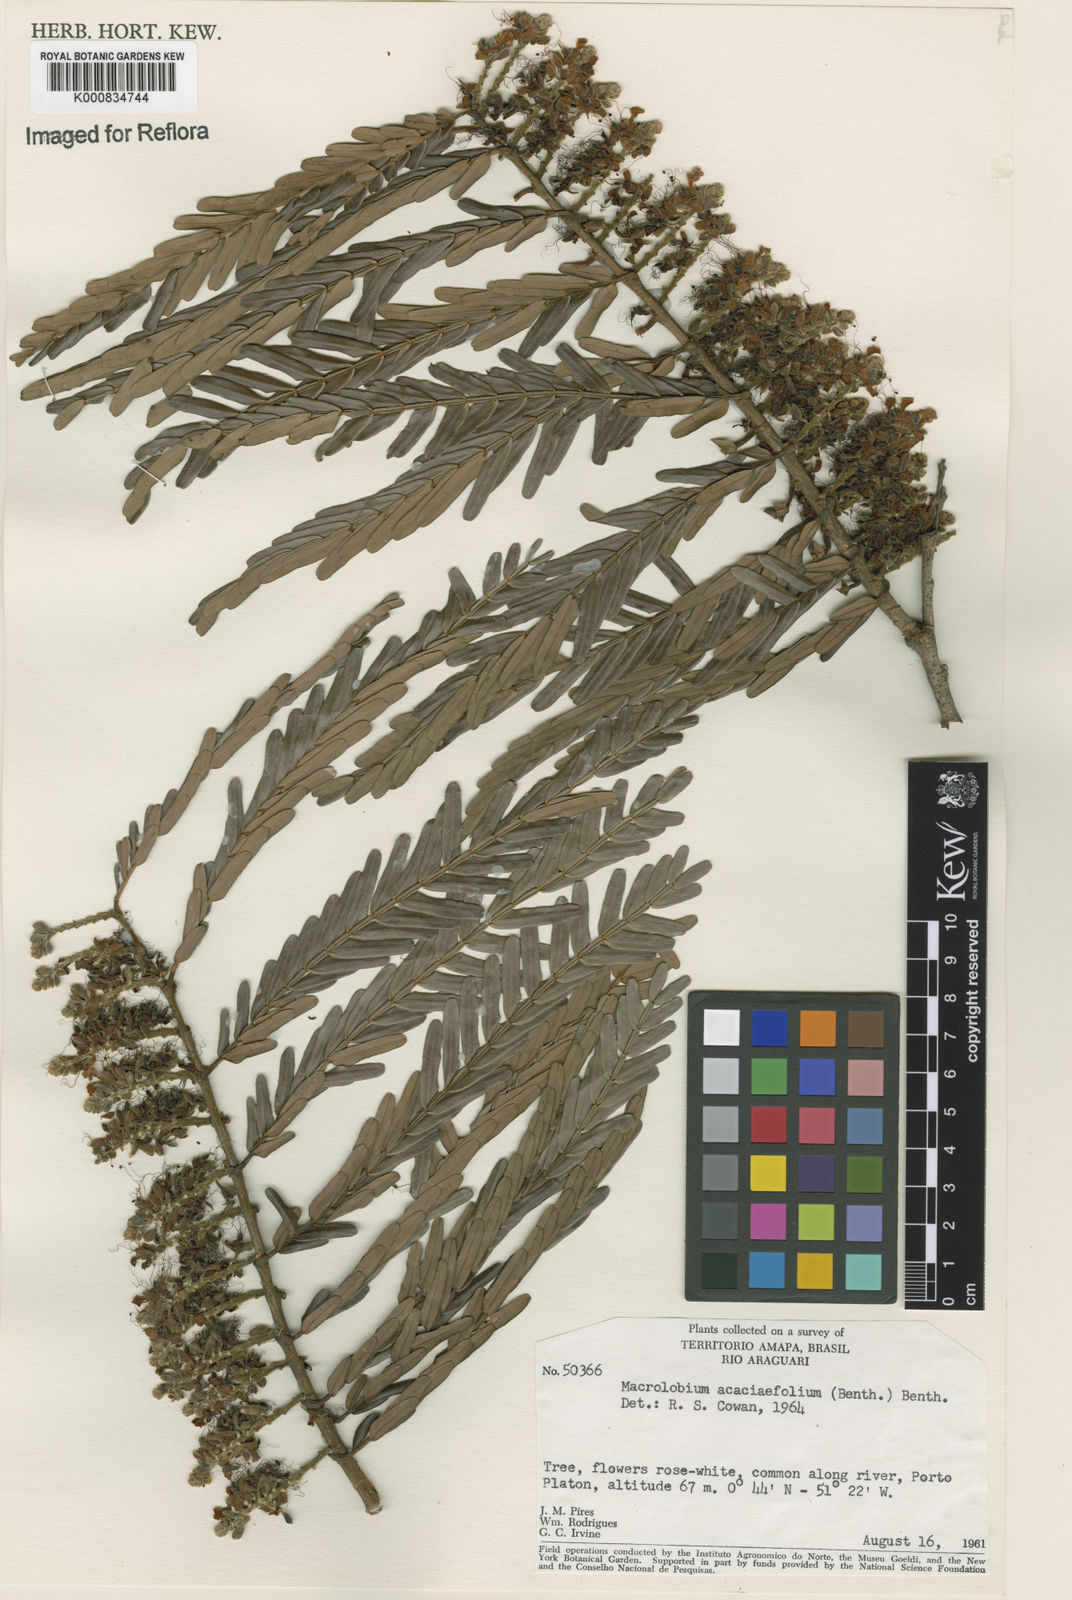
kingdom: Plantae
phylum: Tracheophyta
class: Magnoliopsida
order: Fabales
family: Fabaceae
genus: Macrolobium
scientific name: Macrolobium acaciifolium
